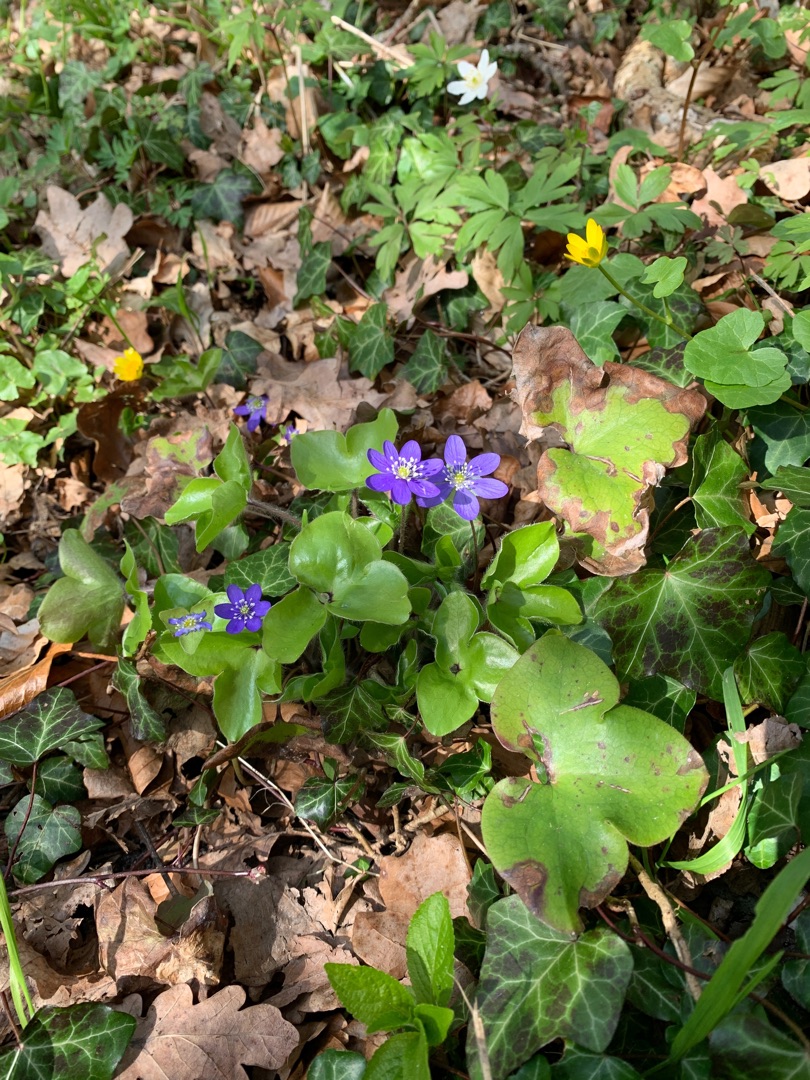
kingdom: Plantae
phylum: Tracheophyta
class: Magnoliopsida
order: Ranunculales
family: Ranunculaceae
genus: Hepatica
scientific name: Hepatica nobilis
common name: Blå anemone
